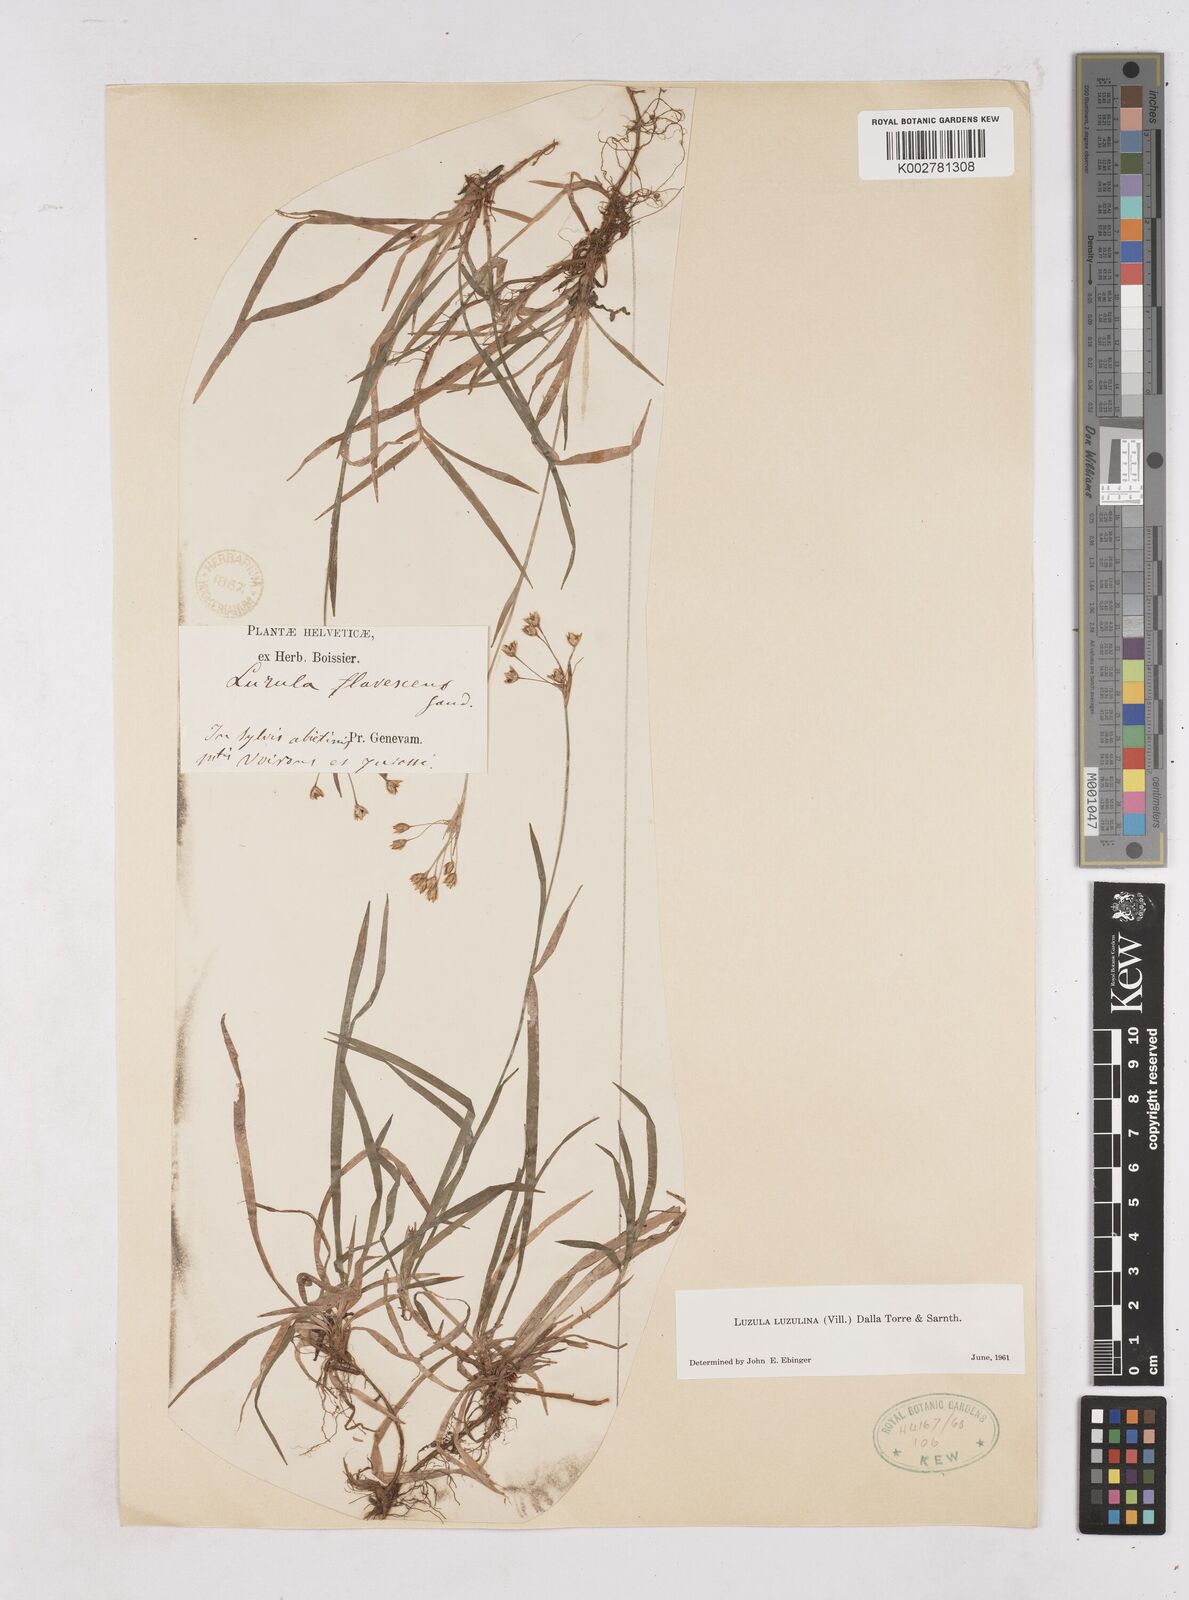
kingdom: Plantae
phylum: Tracheophyta
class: Liliopsida
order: Poales
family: Juncaceae
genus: Luzula
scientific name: Luzula luzulina
